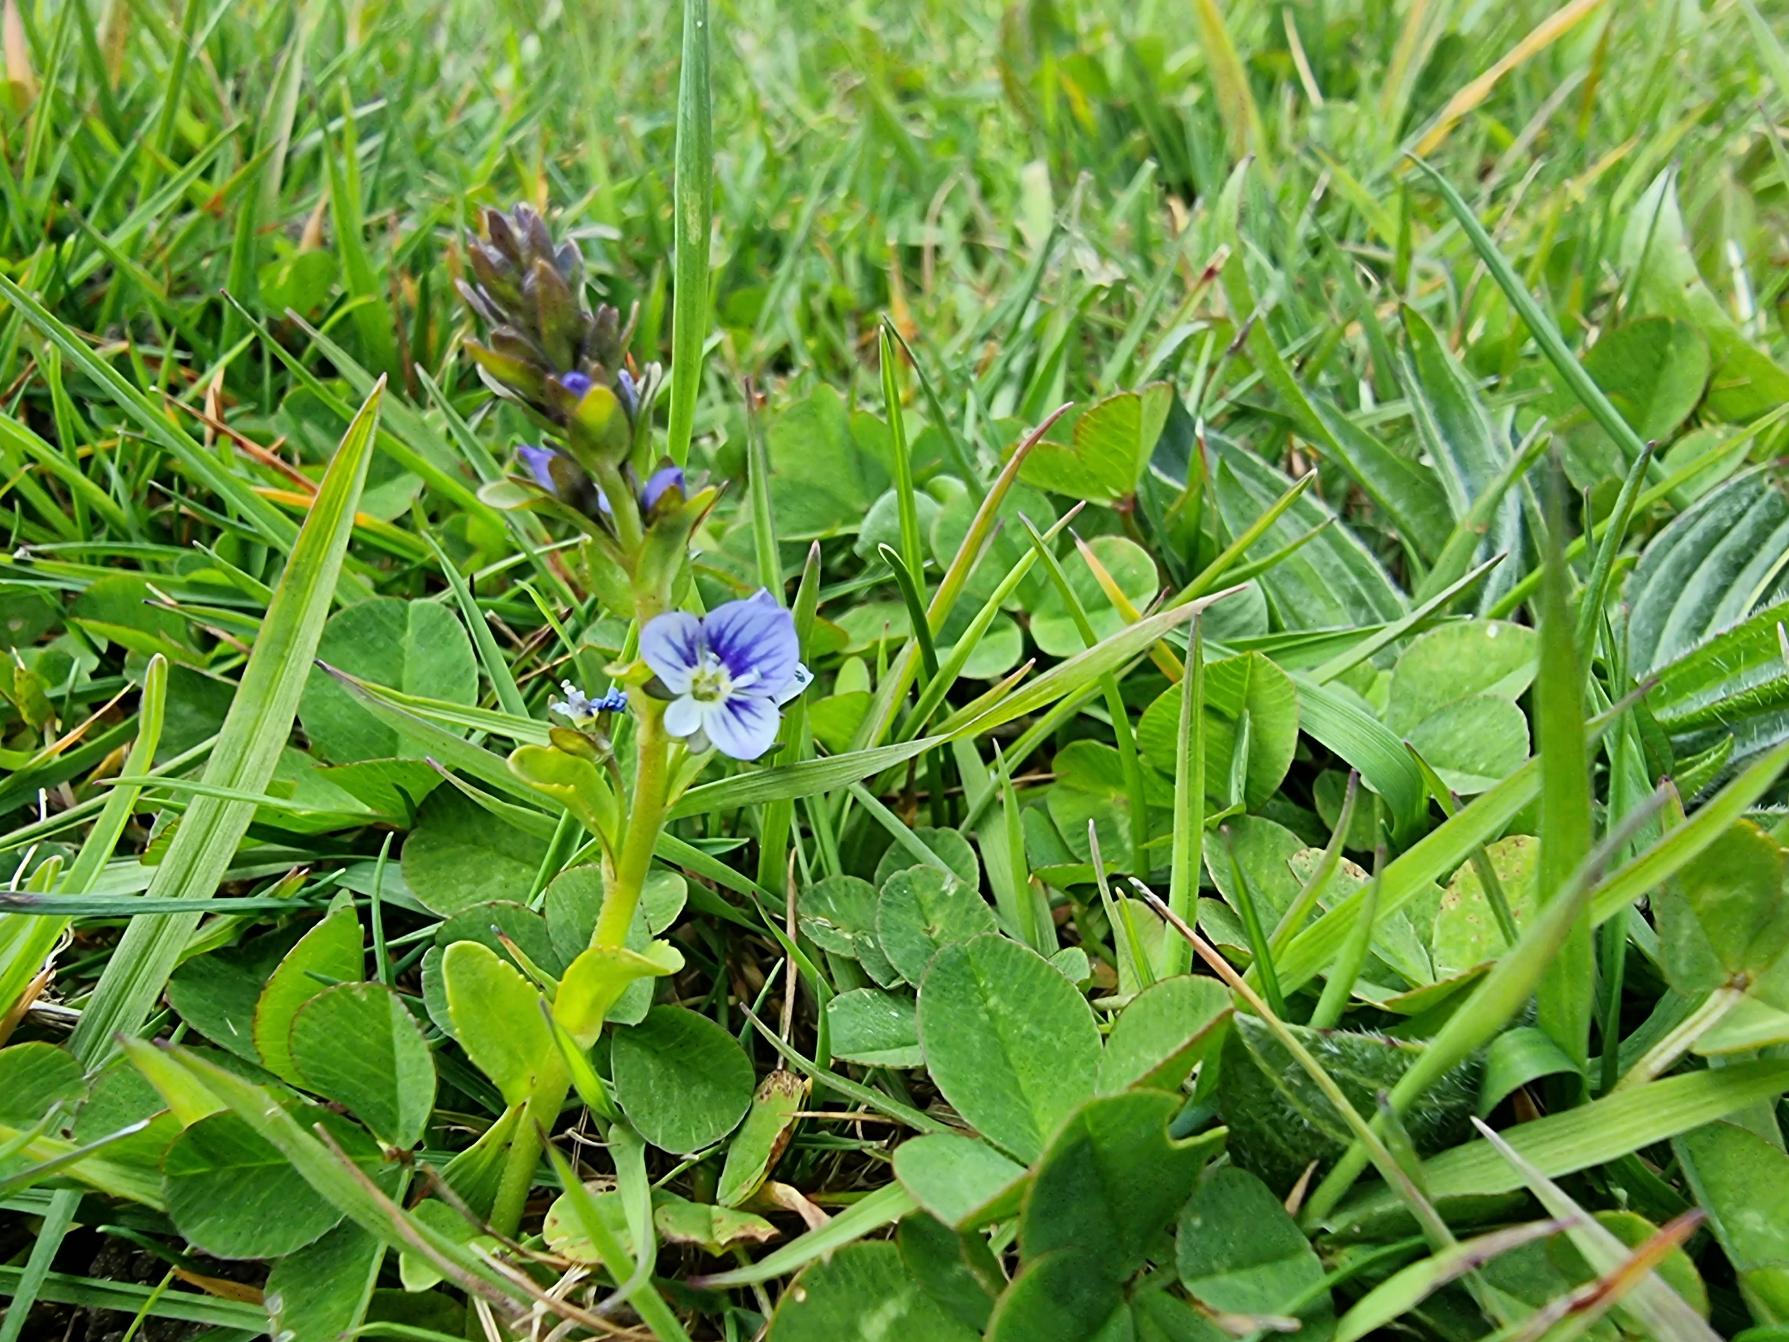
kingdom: Plantae
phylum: Tracheophyta
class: Magnoliopsida
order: Lamiales
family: Plantaginaceae
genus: Veronica
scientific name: Veronica serpyllifolia
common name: Glat ærenpris
